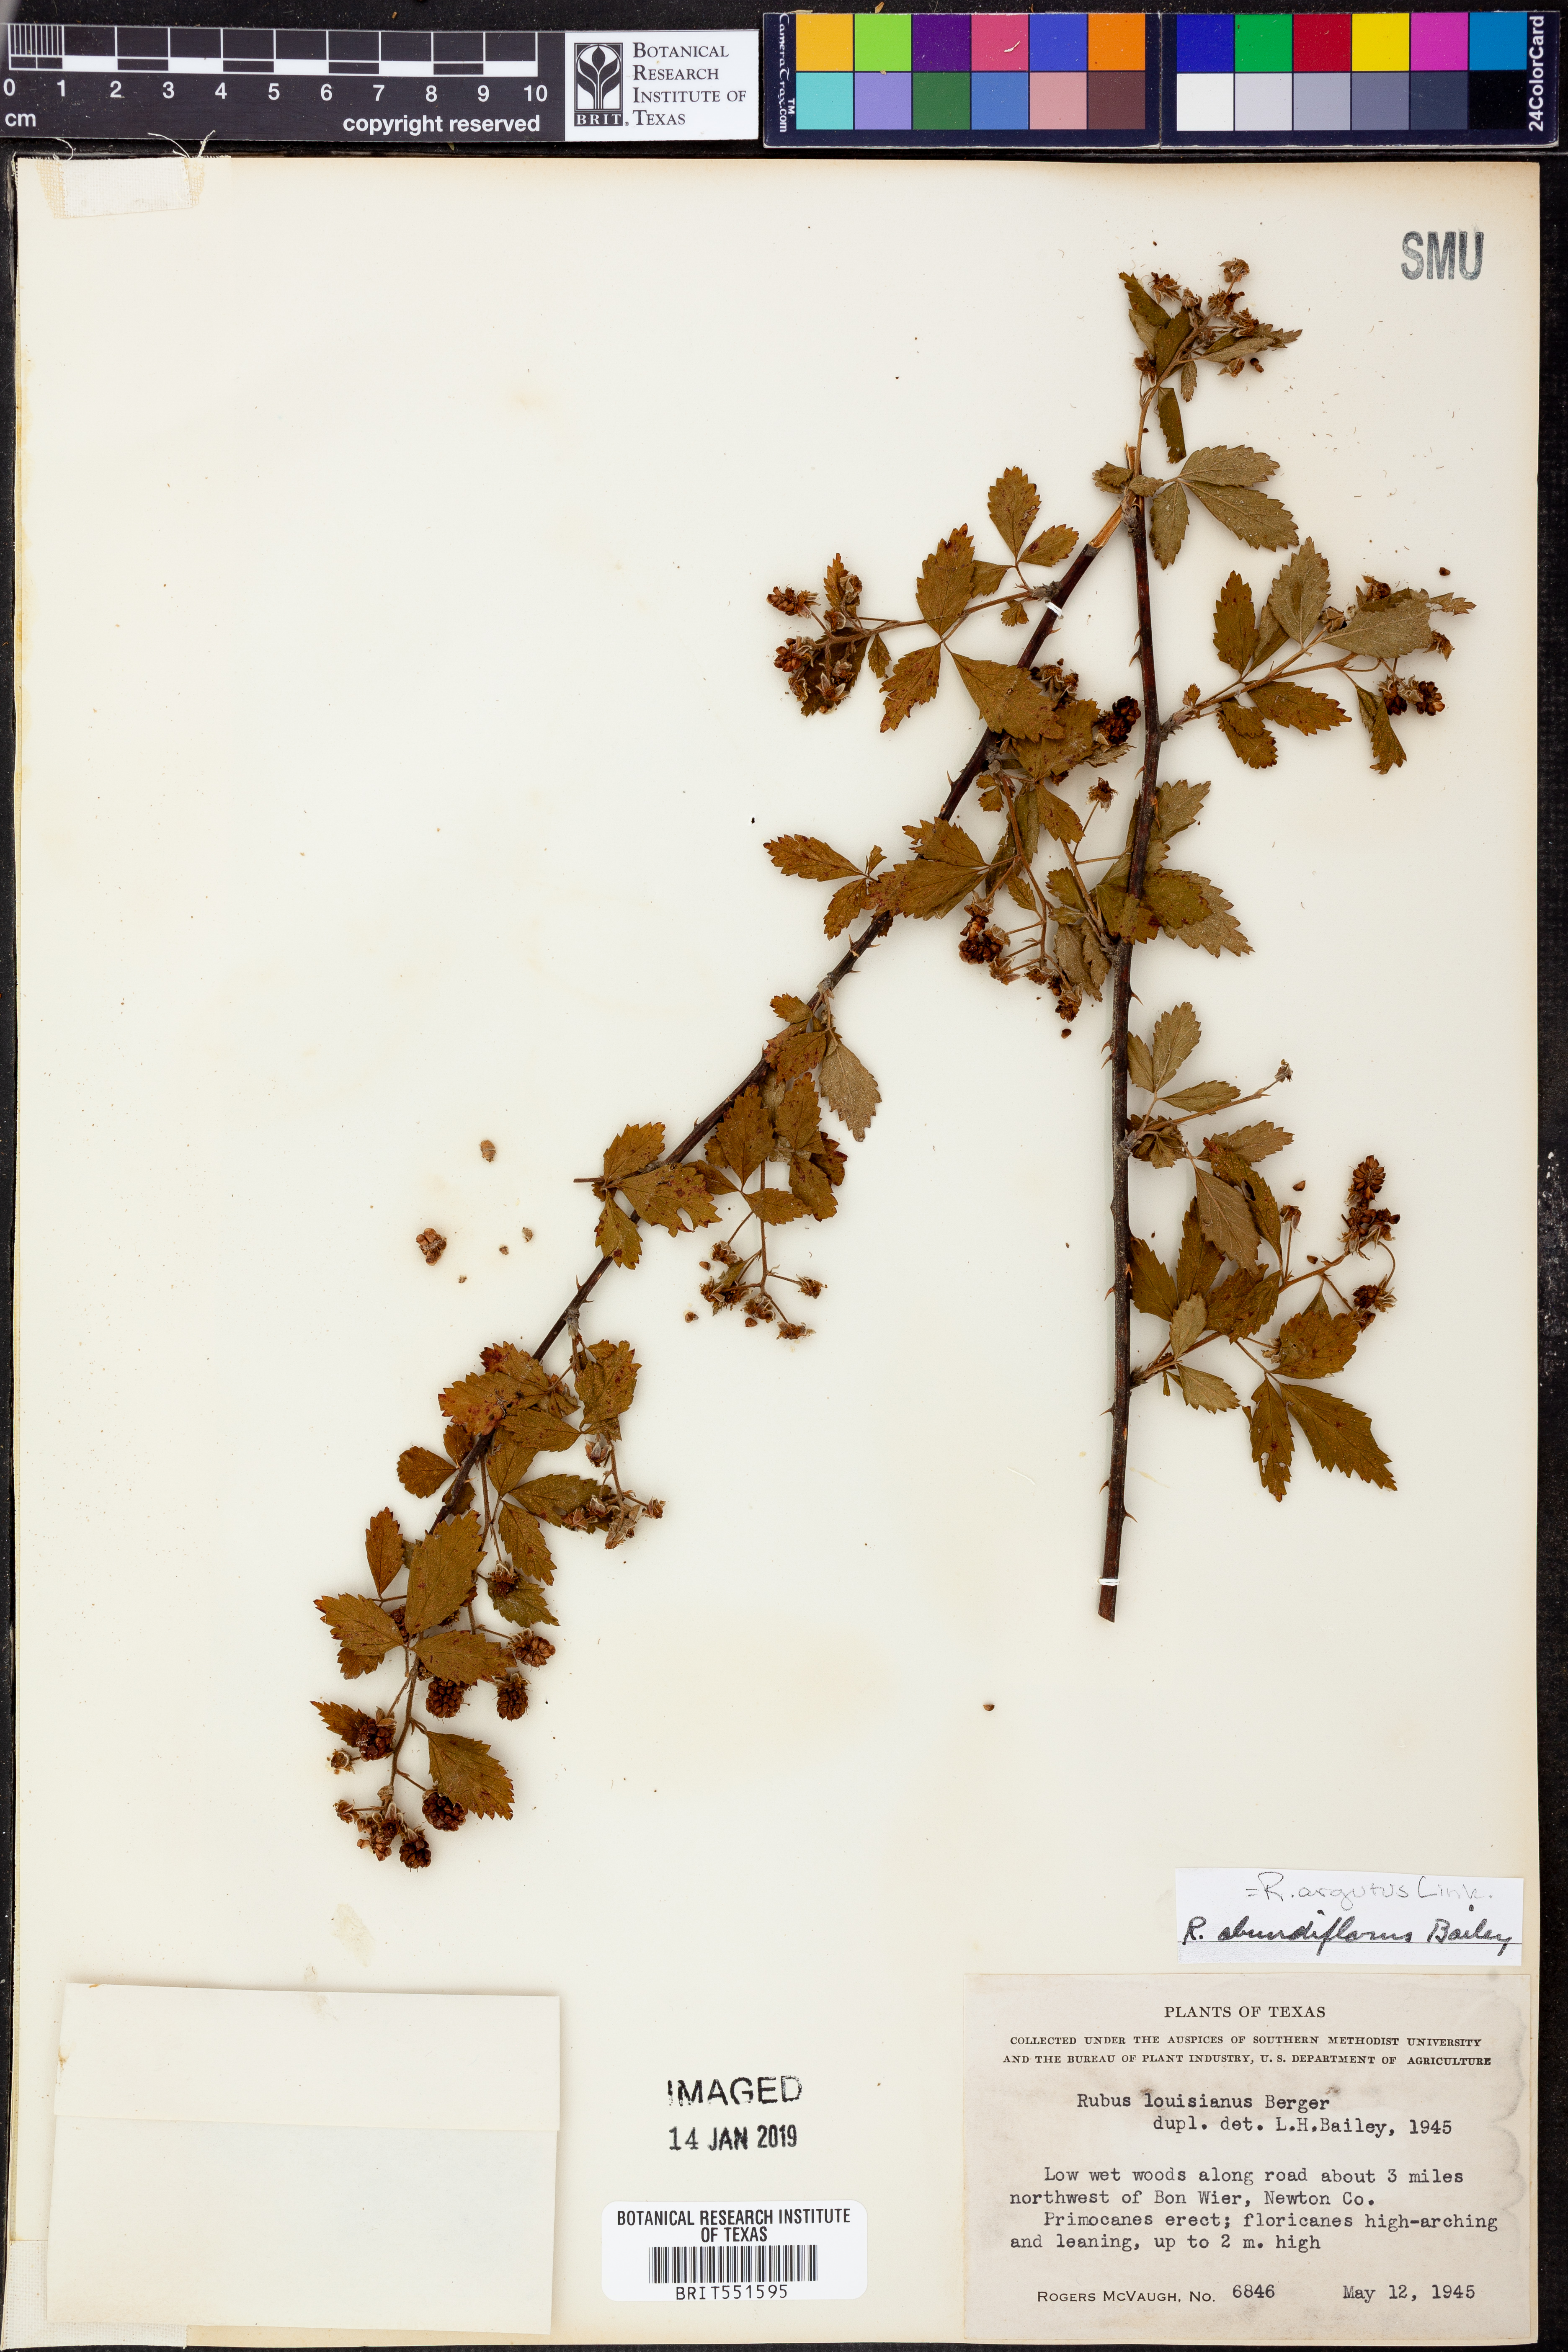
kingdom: Plantae
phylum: Tracheophyta
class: Magnoliopsida
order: Rosales
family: Rosaceae
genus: Rubus
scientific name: Rubus argutus
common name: Sawtooth blackberry
